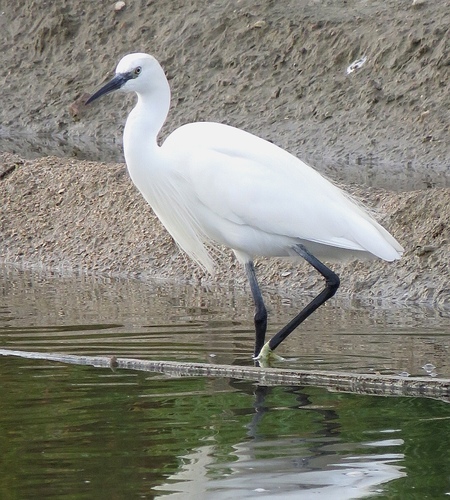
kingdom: Animalia
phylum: Chordata
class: Aves
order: Pelecaniformes
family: Ardeidae
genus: Egretta
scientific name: Egretta garzetta
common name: Little egret
